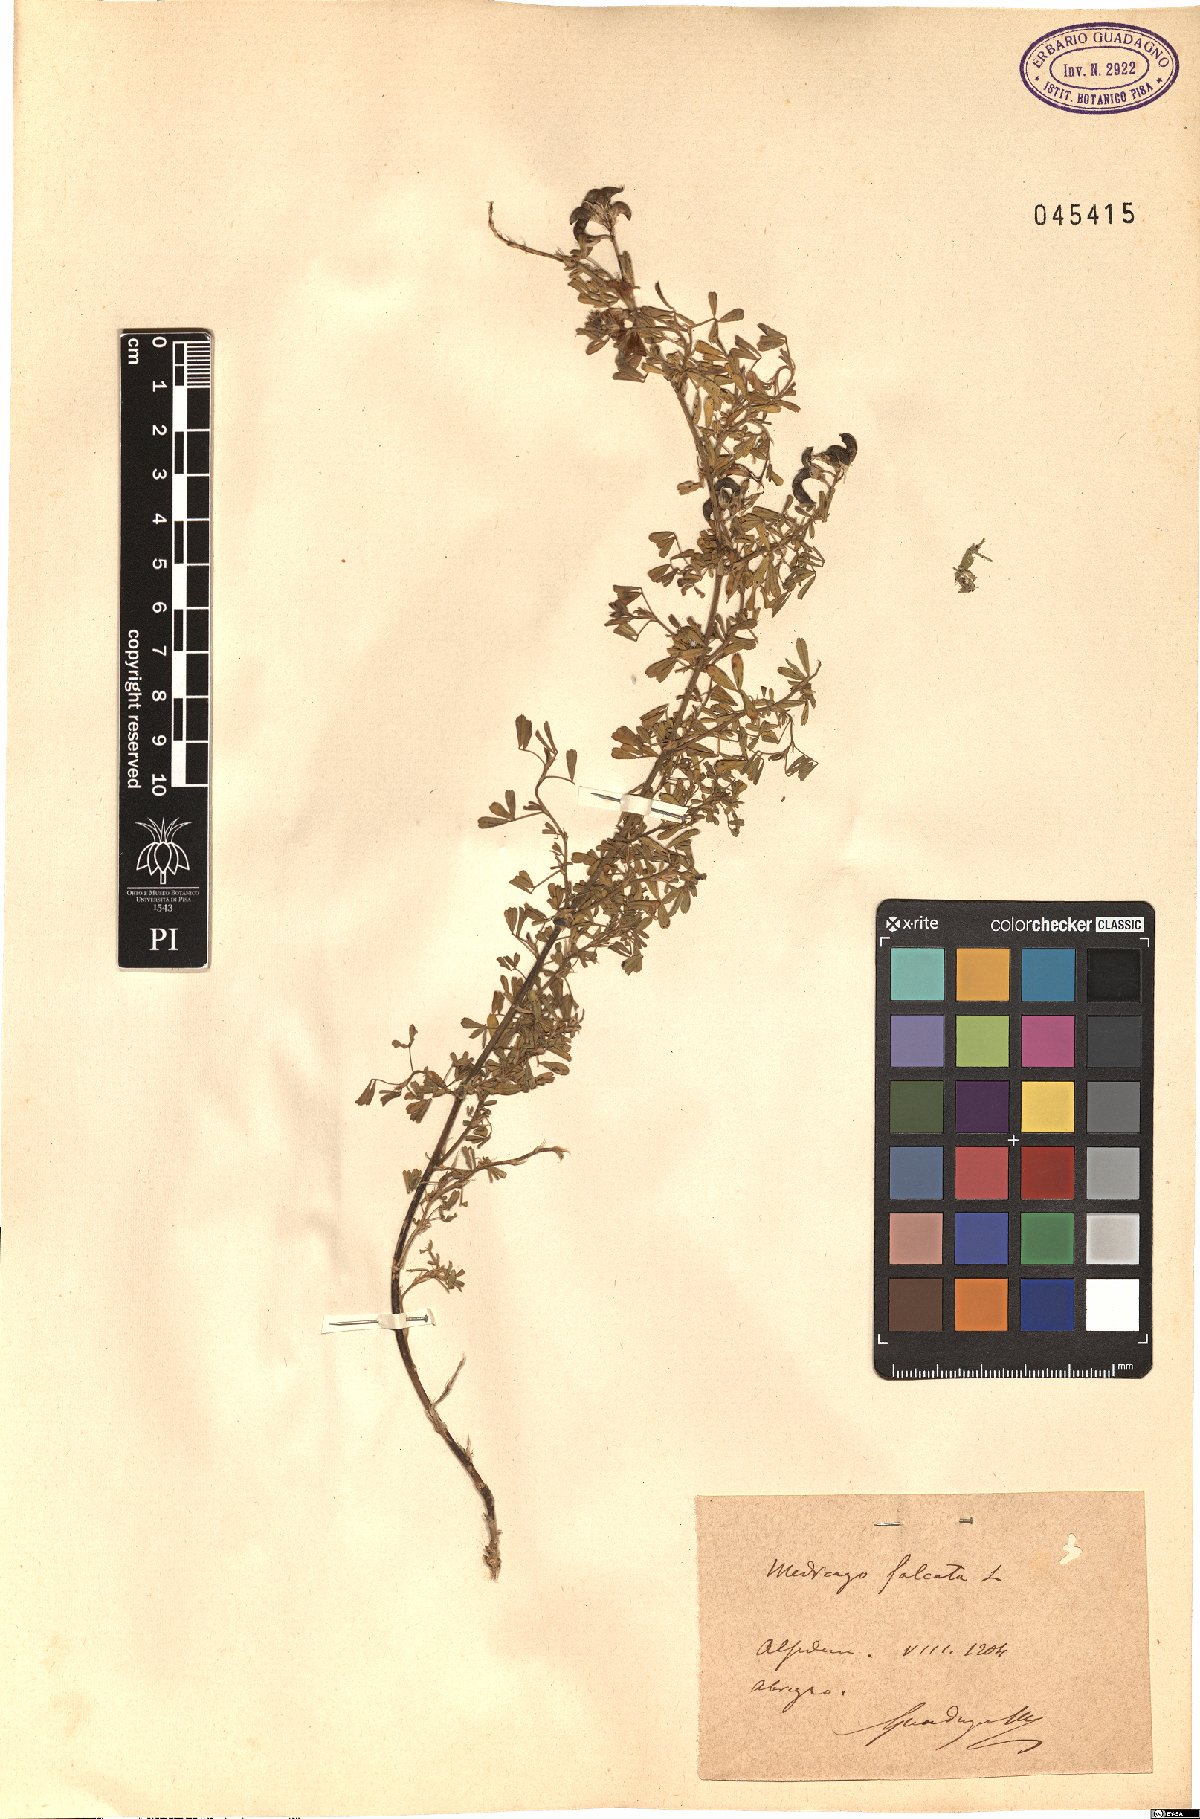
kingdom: Plantae
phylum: Tracheophyta
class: Magnoliopsida
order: Fabales
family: Fabaceae
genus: Medicago
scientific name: Medicago falcata
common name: Sickle medick
